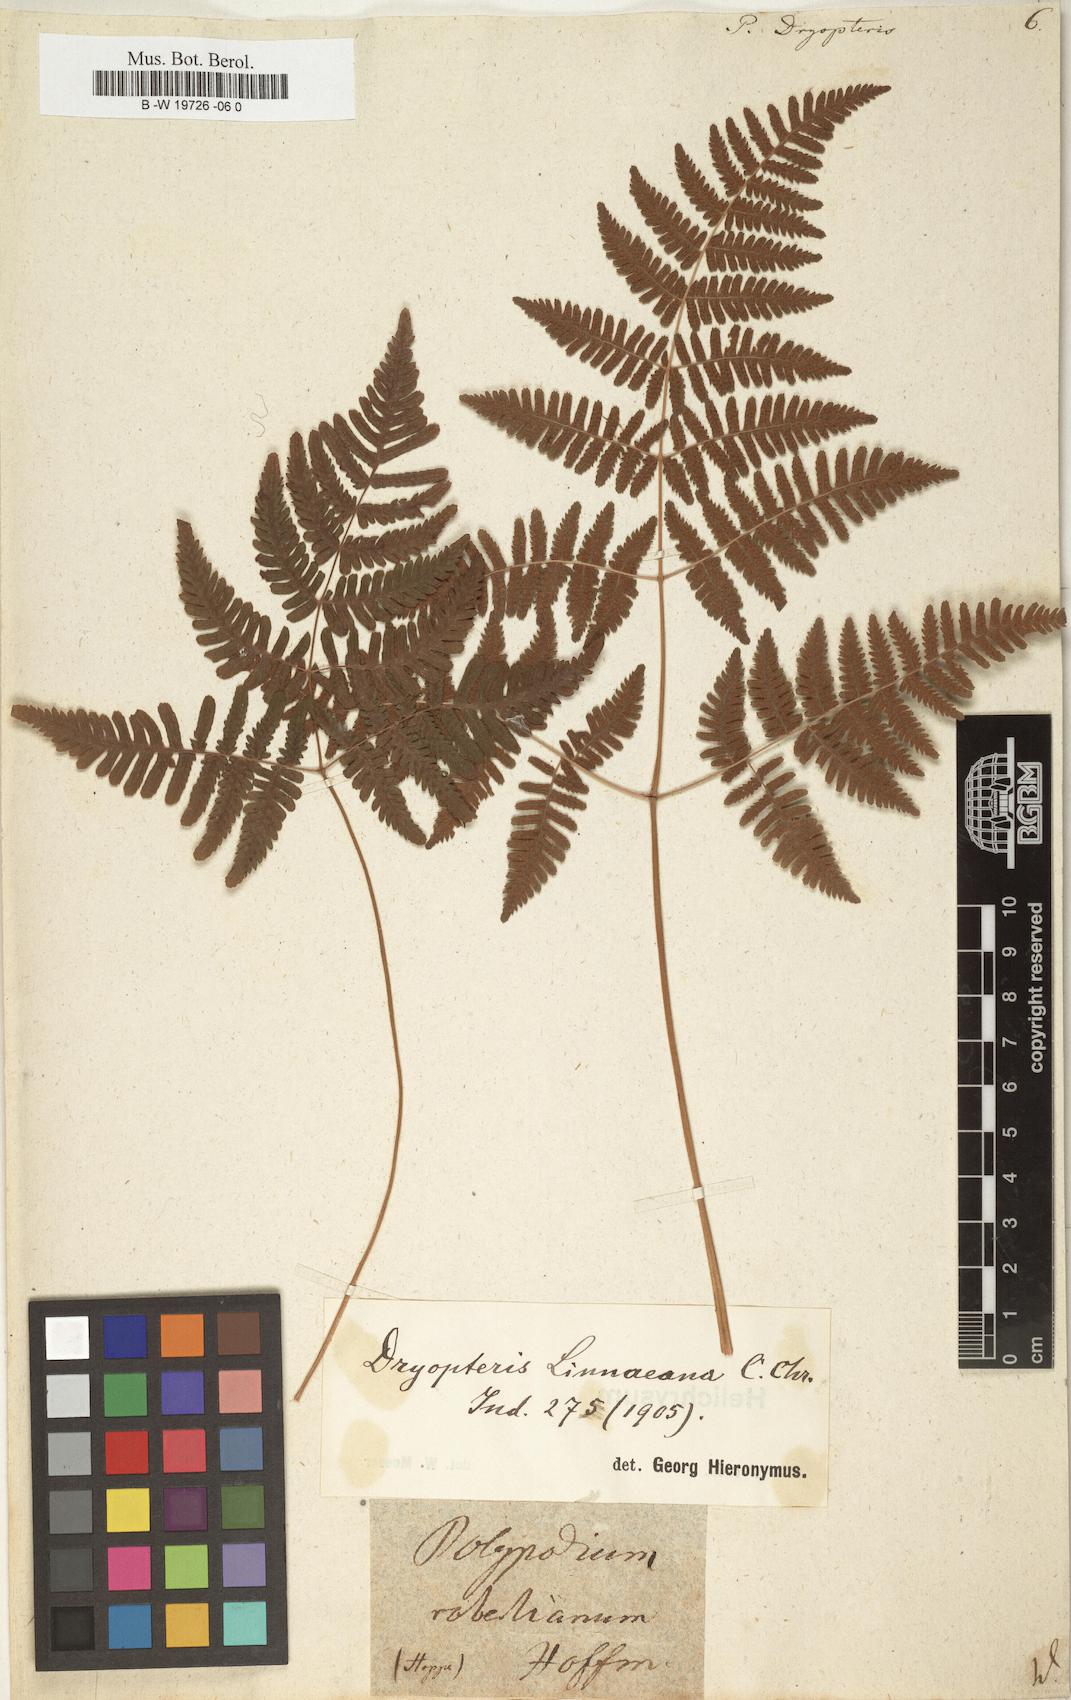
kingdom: Plantae
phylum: Tracheophyta
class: Polypodiopsida
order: Polypodiales
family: Cystopteridaceae
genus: Gymnocarpium
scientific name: Gymnocarpium dryopteris
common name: Oak fern
